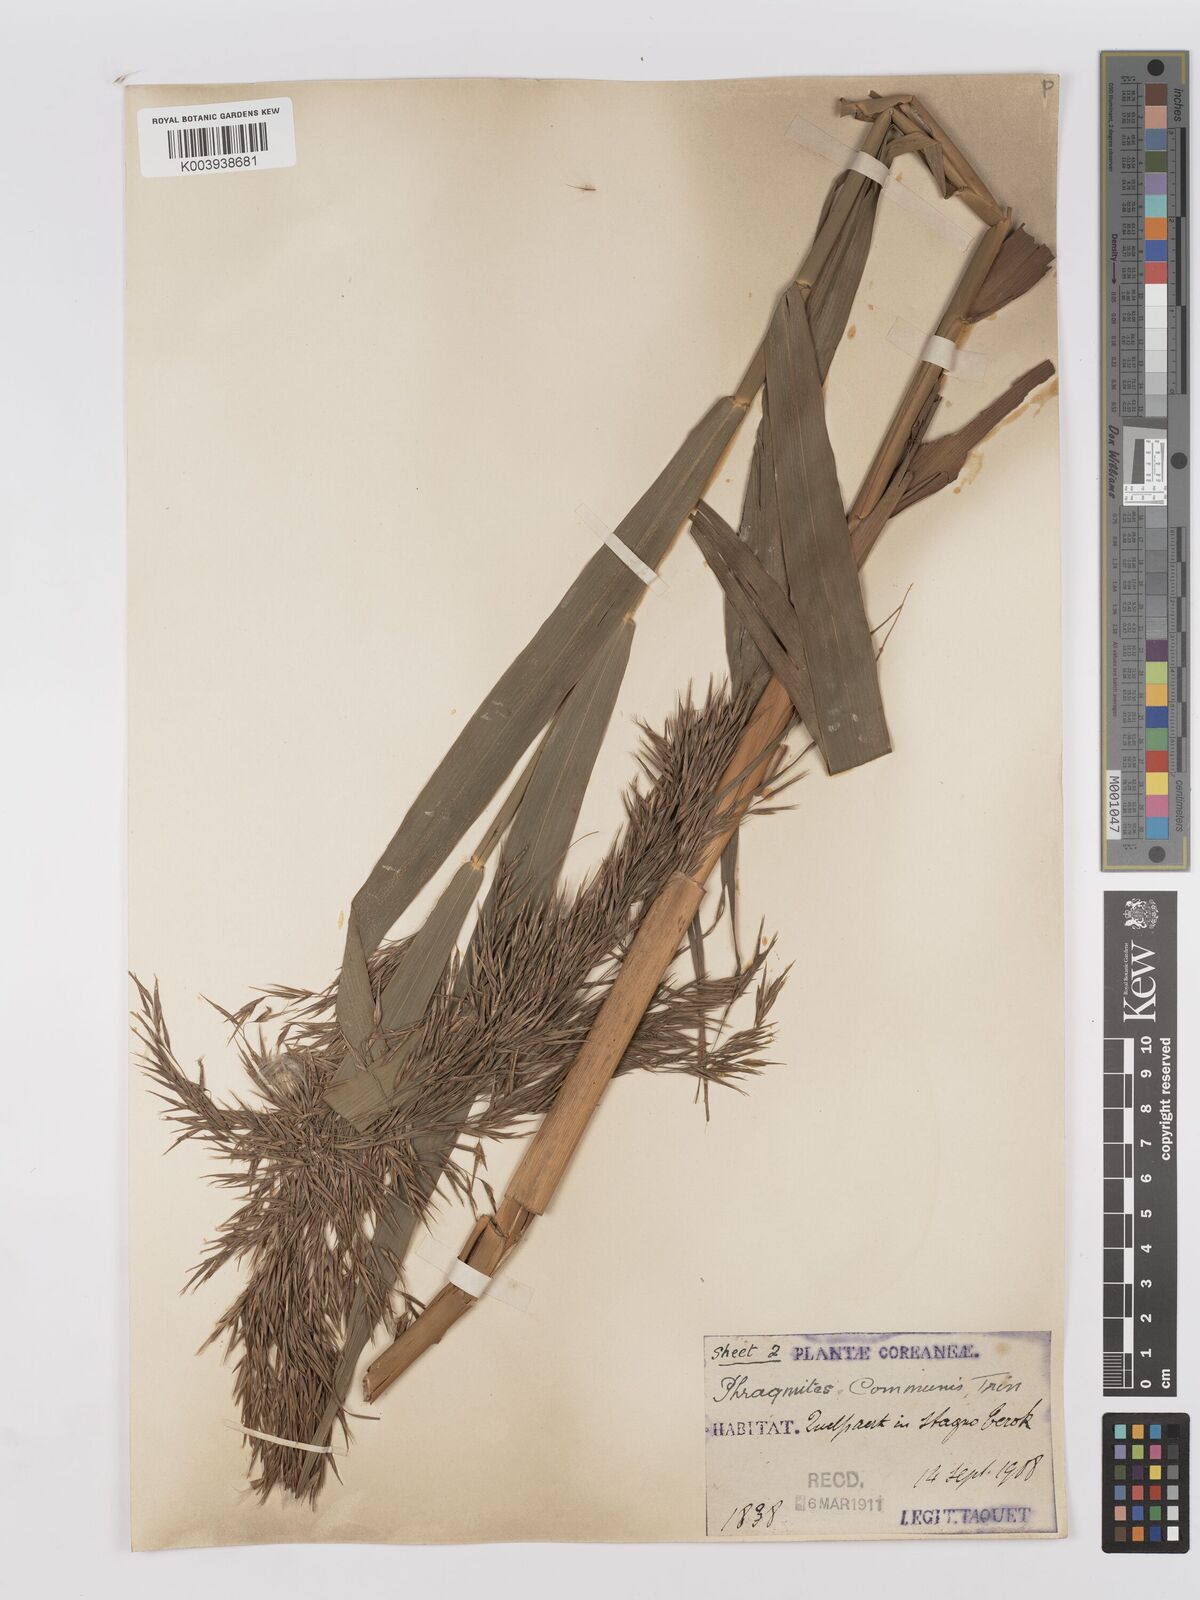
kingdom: Plantae
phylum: Tracheophyta
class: Liliopsida
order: Poales
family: Poaceae
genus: Phragmites
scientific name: Phragmites australis
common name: Common reed
